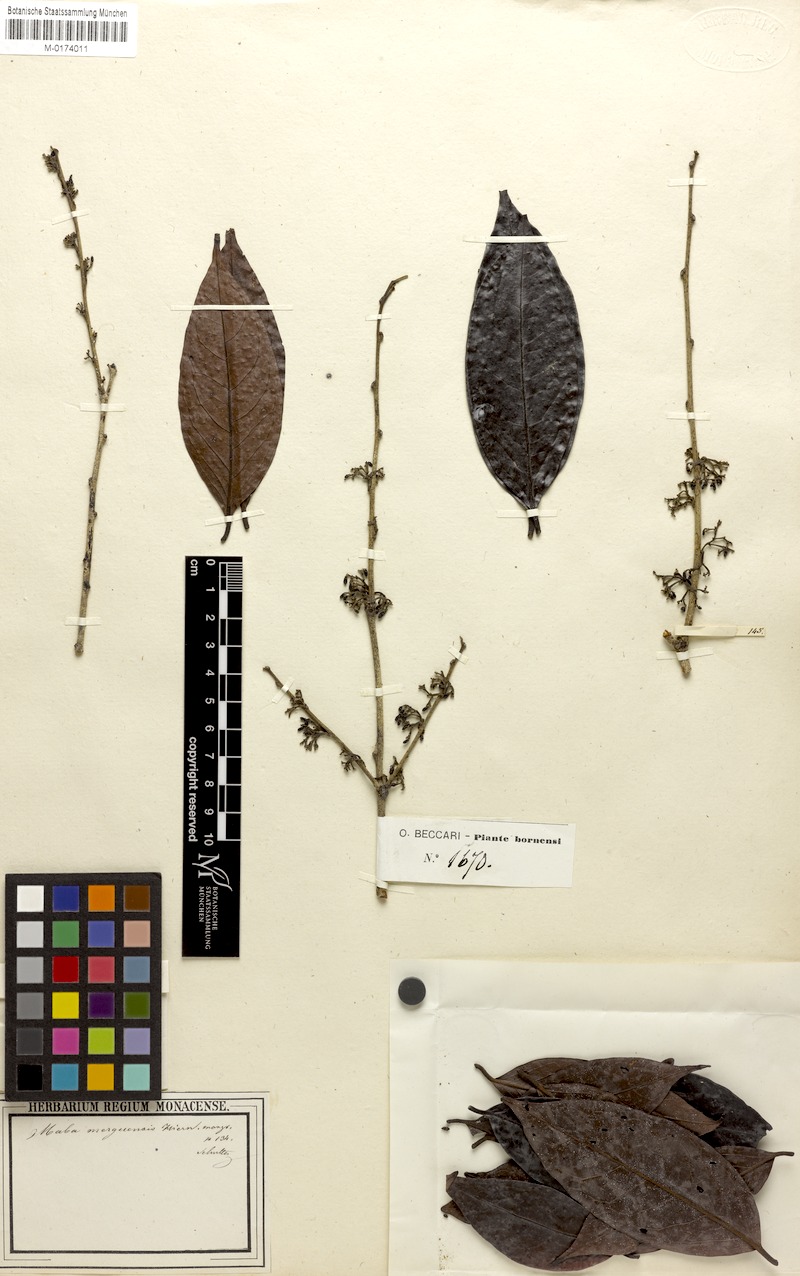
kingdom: Plantae
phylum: Tracheophyta
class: Magnoliopsida
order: Ericales
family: Ebenaceae
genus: Diospyros
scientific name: Diospyros venosa
